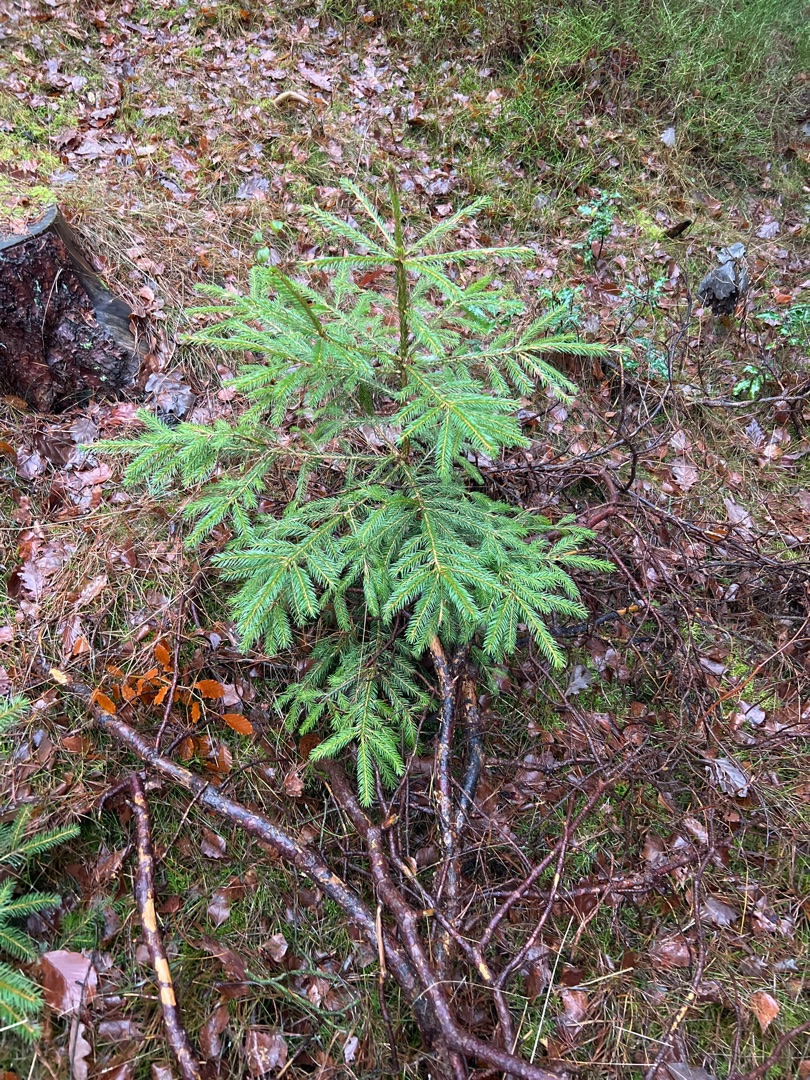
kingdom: Plantae
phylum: Tracheophyta
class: Pinopsida
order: Pinales
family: Pinaceae
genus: Picea
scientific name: Picea abies
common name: Rød-gran
